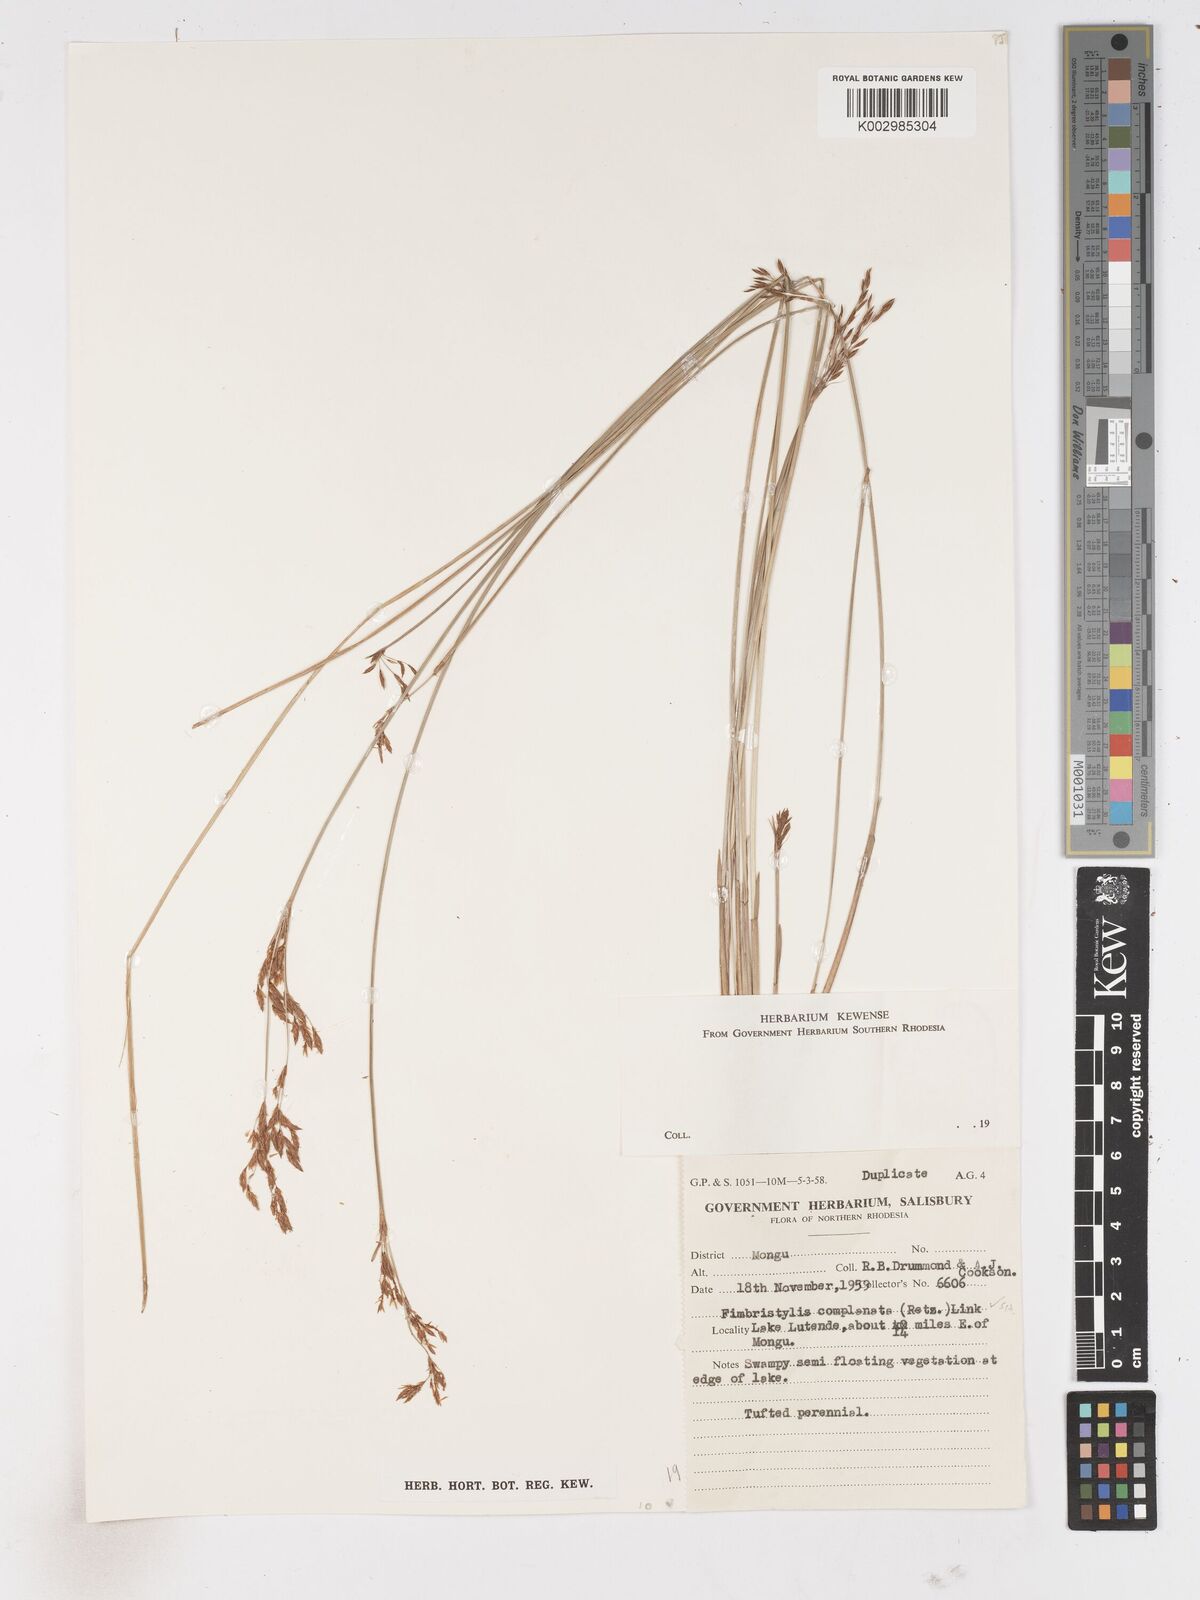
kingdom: Plantae
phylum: Tracheophyta
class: Liliopsida
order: Poales
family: Cyperaceae
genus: Fimbristylis
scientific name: Fimbristylis complanata
